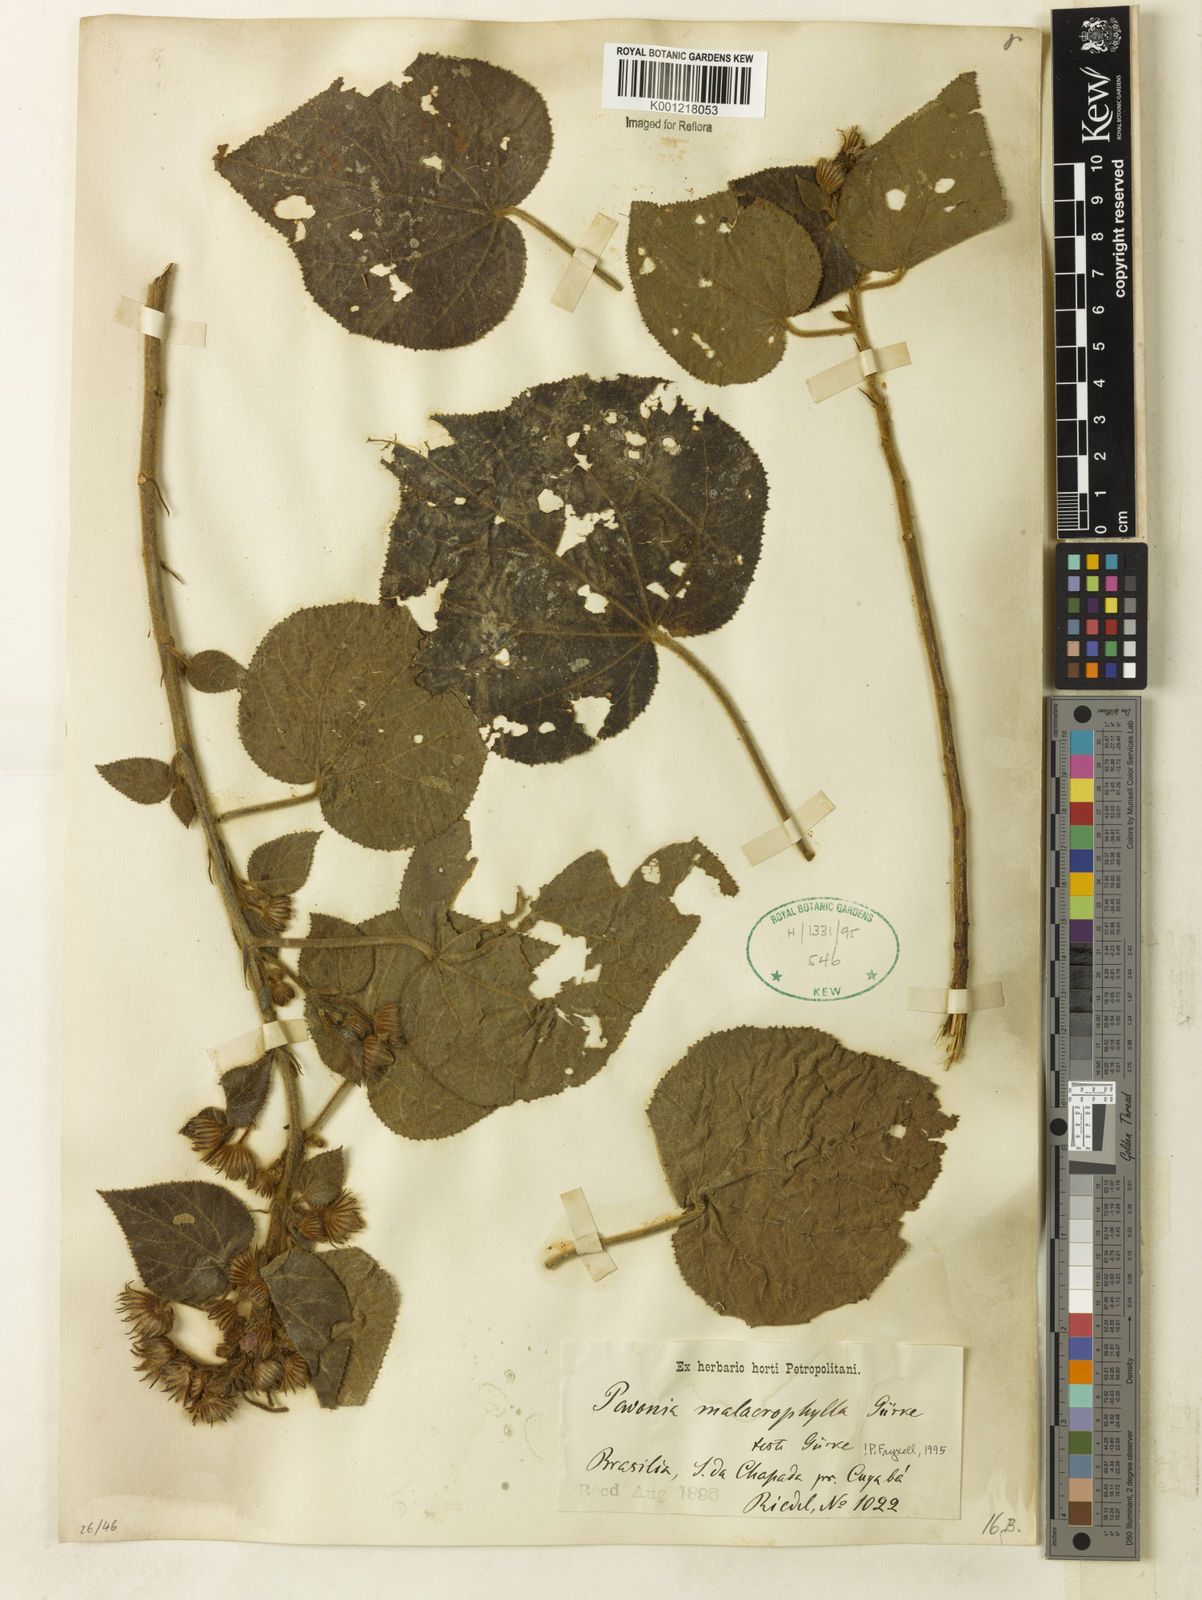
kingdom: Plantae
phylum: Tracheophyta
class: Magnoliopsida
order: Malvales
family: Malvaceae
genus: Pavonia
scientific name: Pavonia malacophylla
